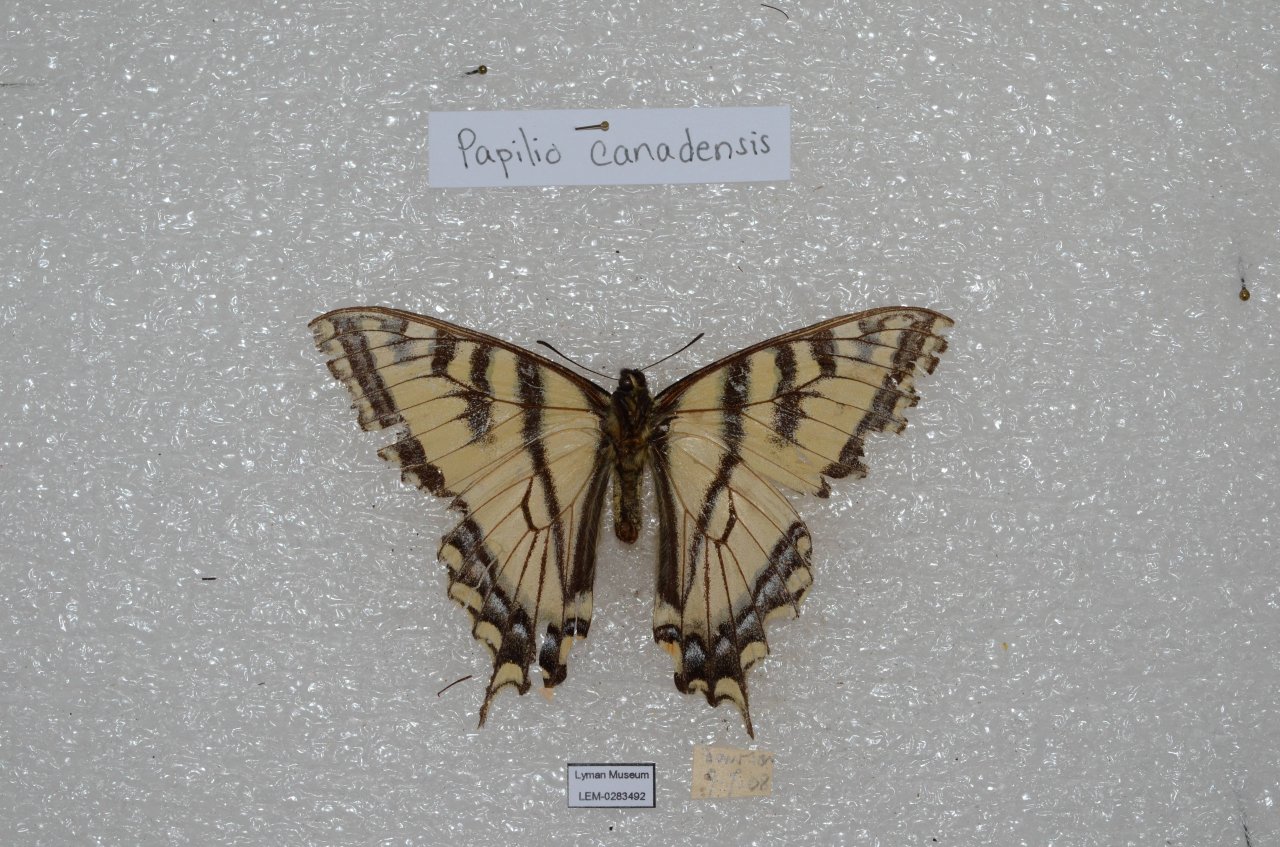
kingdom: Animalia
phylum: Arthropoda
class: Insecta
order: Lepidoptera
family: Papilionidae
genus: Pterourus
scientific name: Pterourus canadensis
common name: Canadian Tiger Swallowtail
